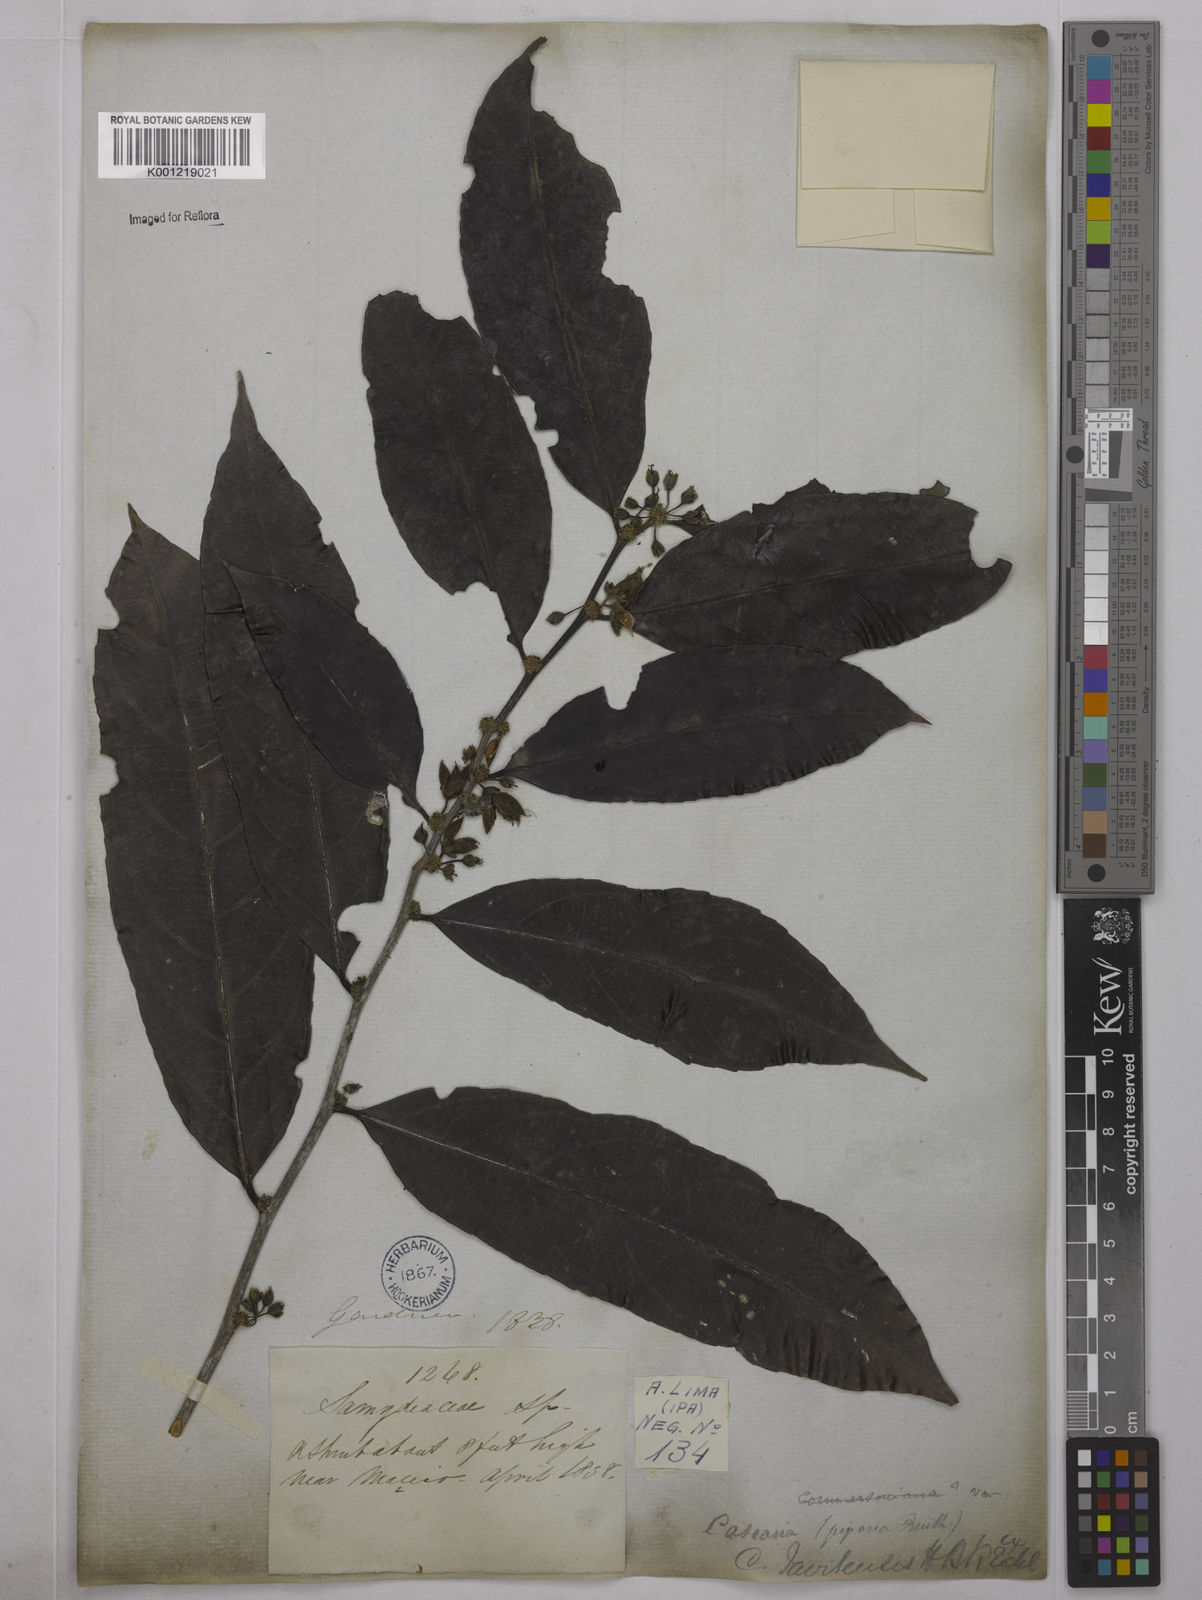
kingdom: Plantae
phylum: Tracheophyta
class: Magnoliopsida
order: Malpighiales
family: Salicaceae
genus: Piparea
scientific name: Piparea multiflora
